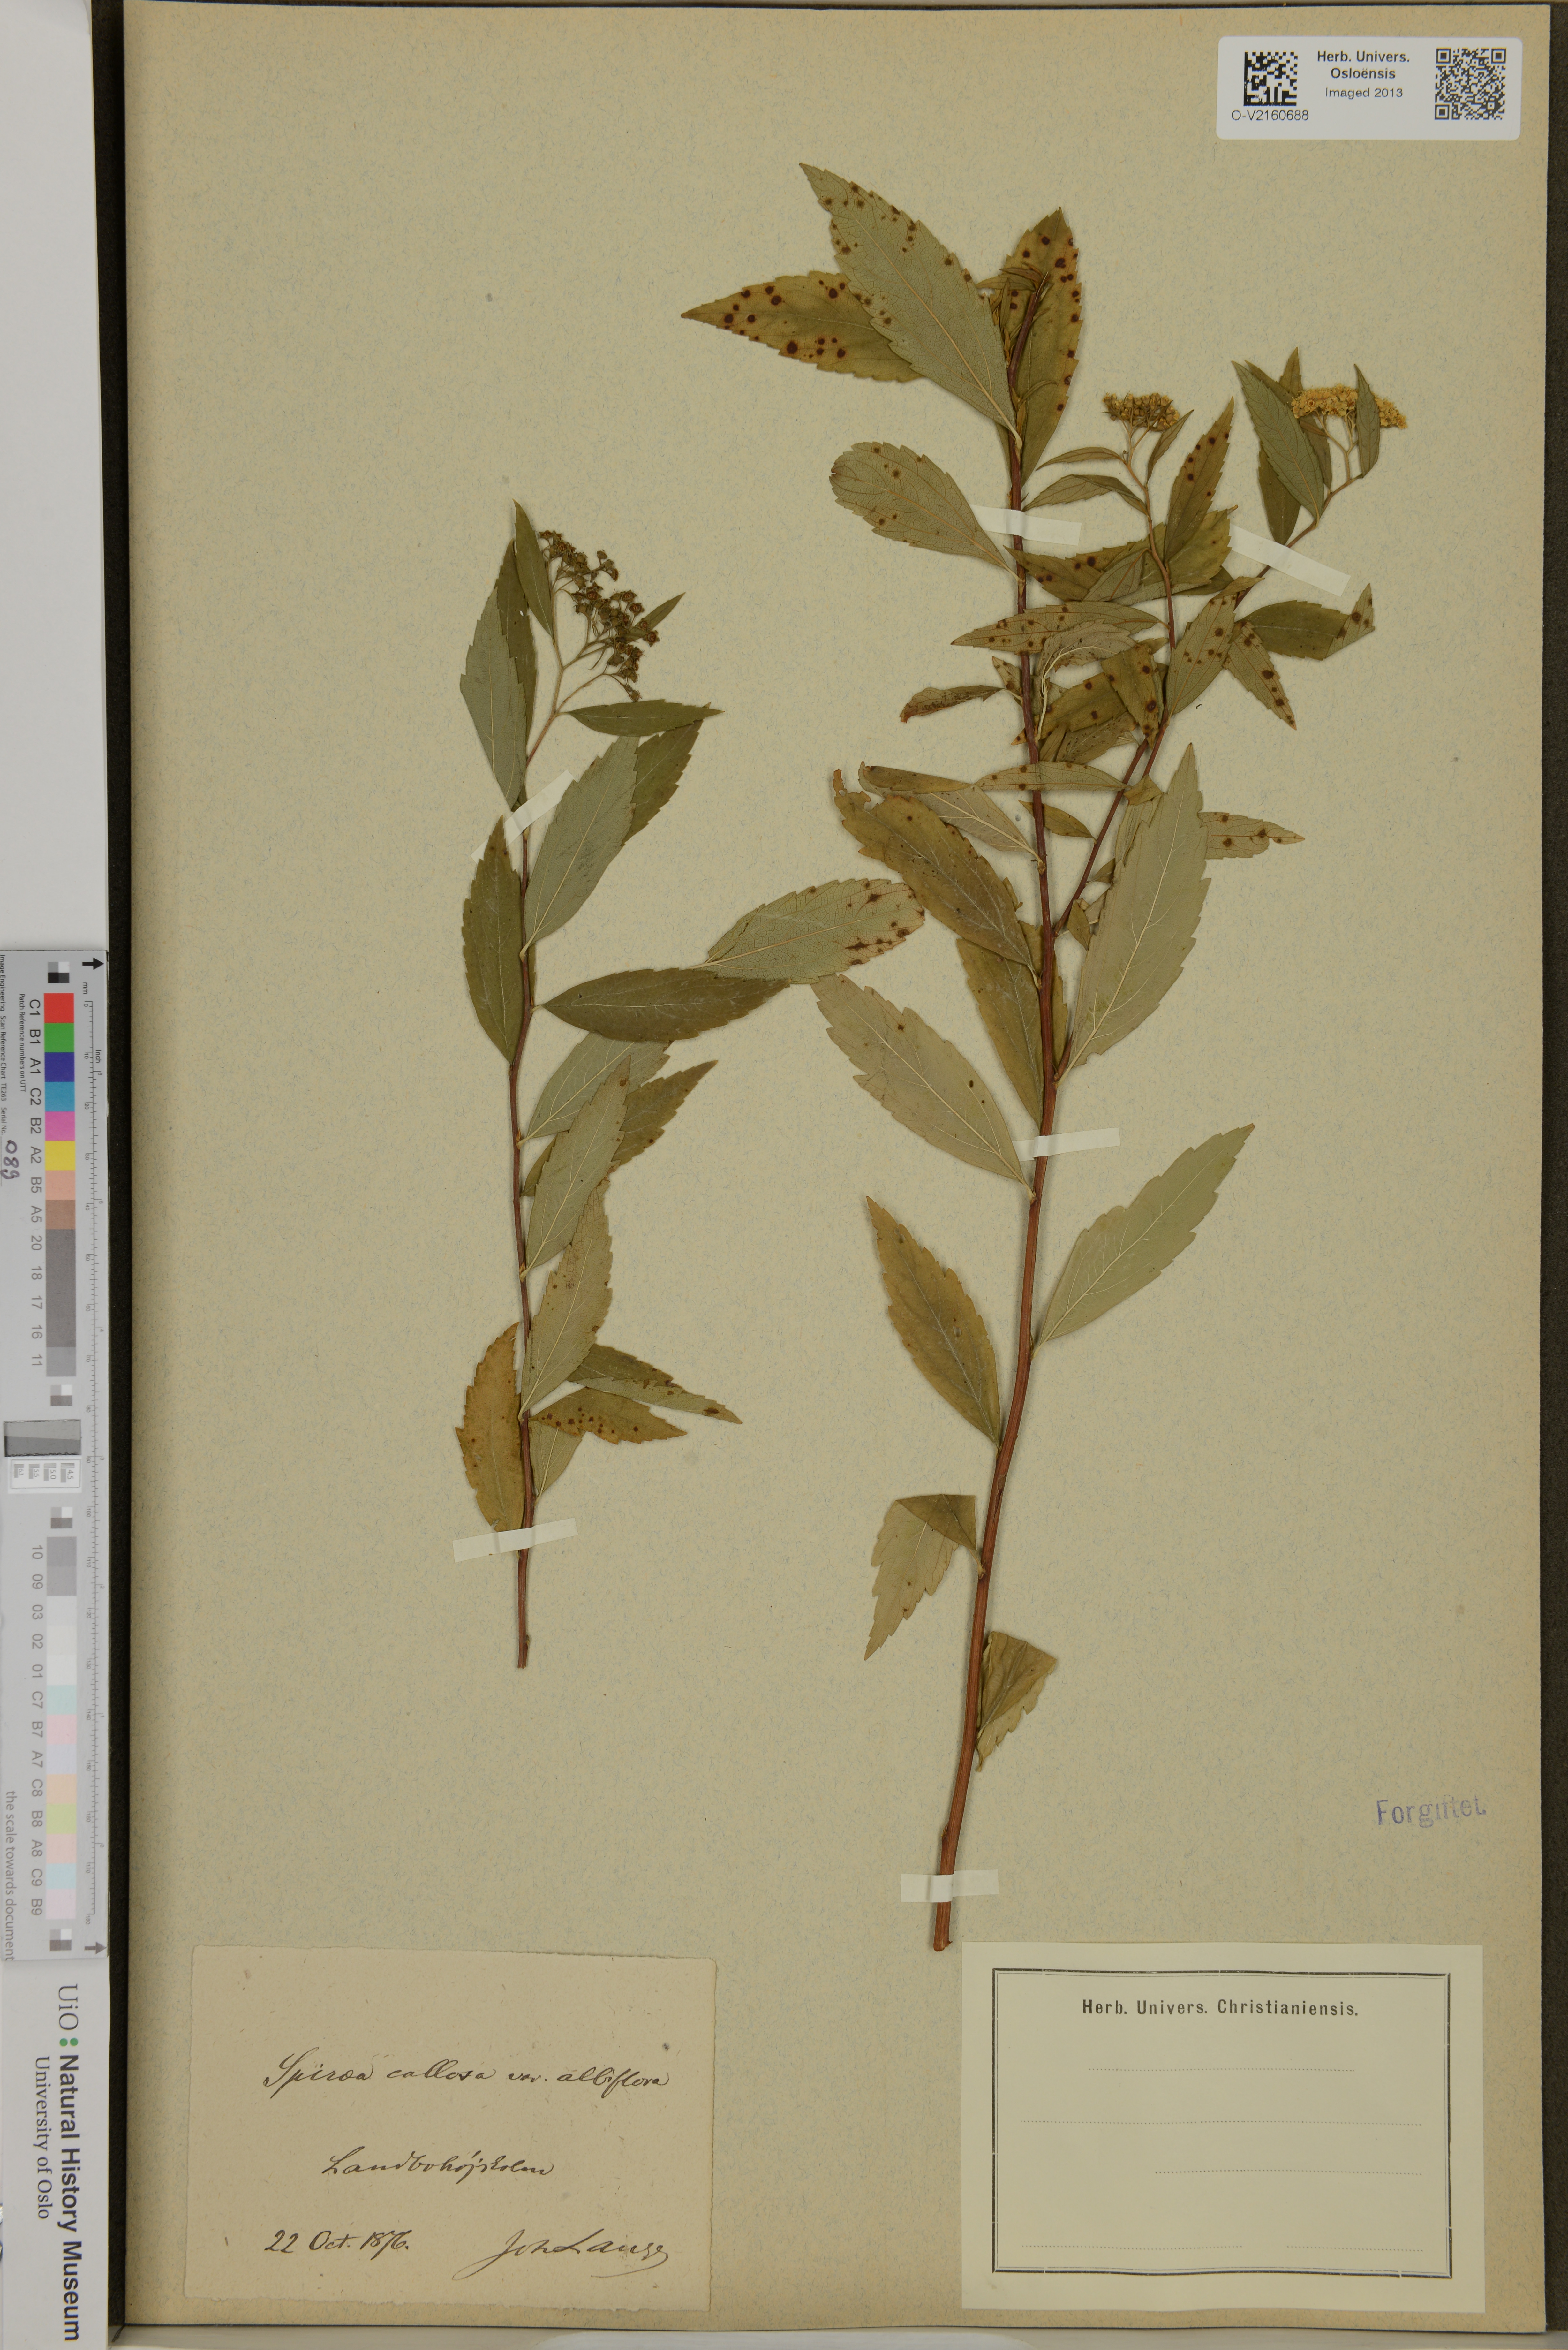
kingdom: Plantae
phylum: Tracheophyta
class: Magnoliopsida
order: Rosales
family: Rosaceae
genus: Spiraea
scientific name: Spiraea
